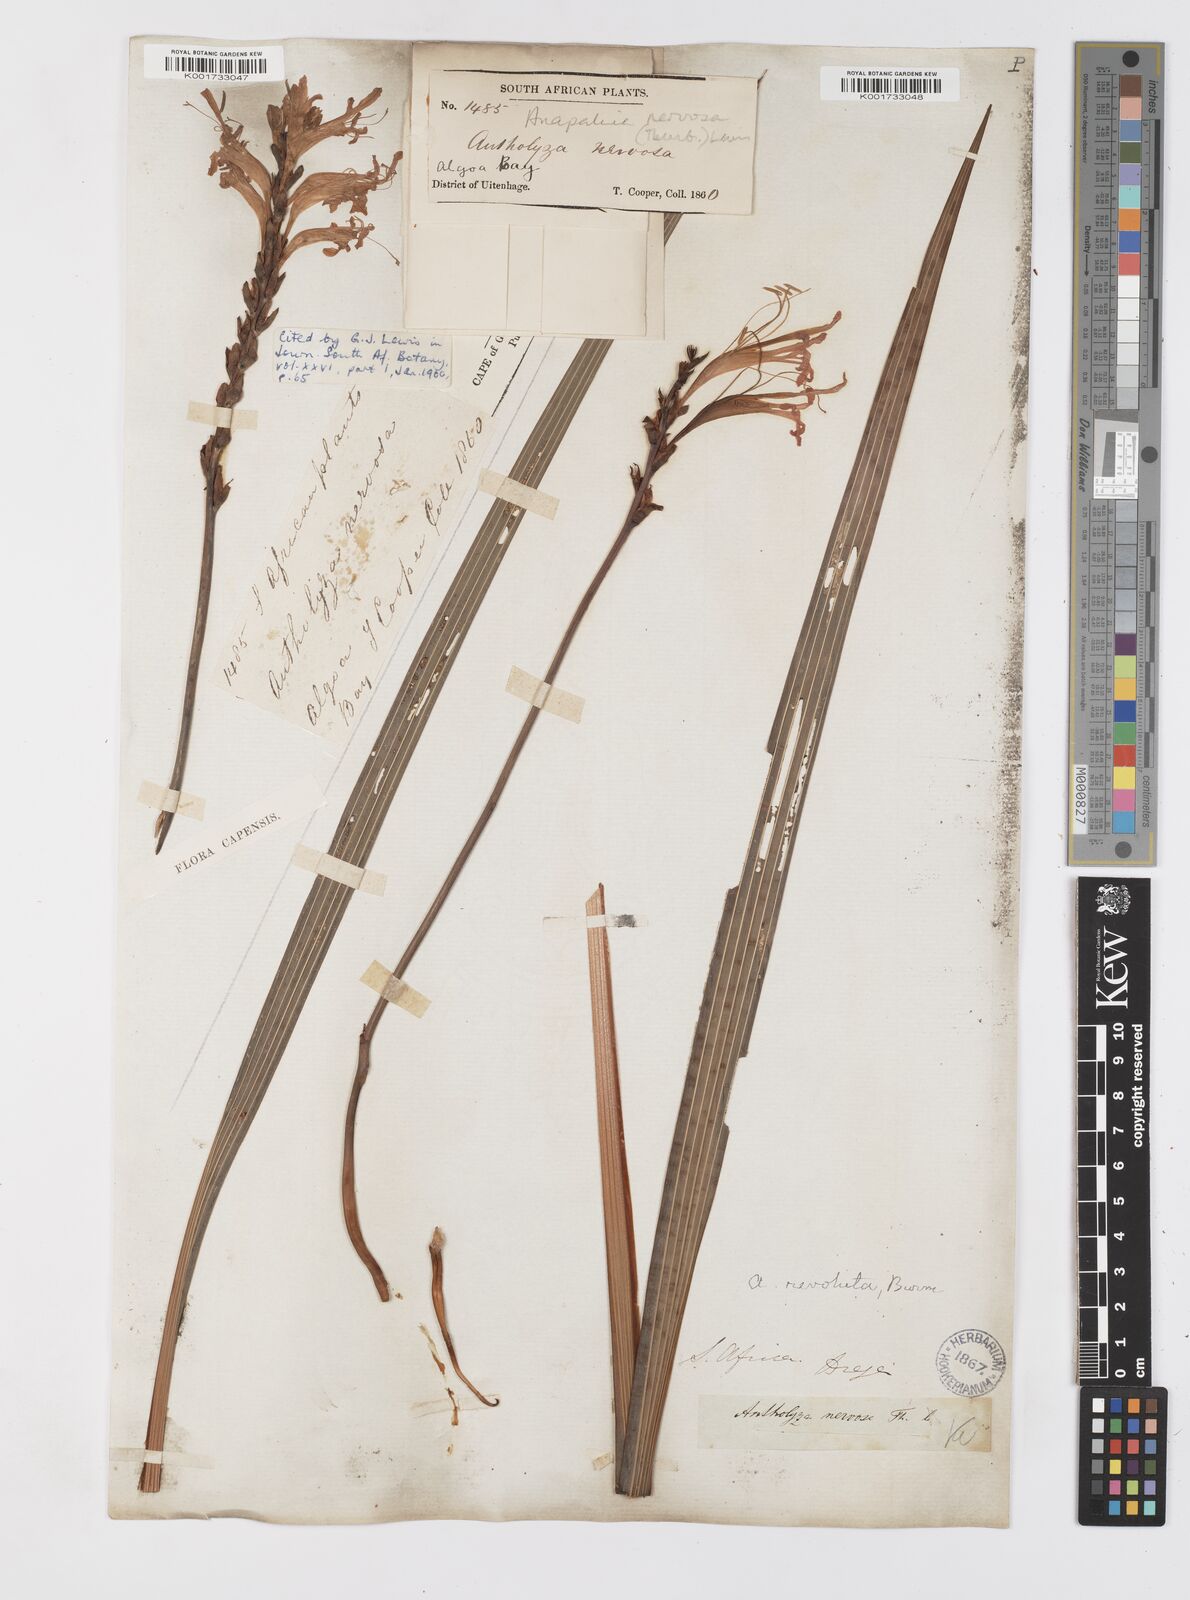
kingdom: Plantae
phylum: Tracheophyta
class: Liliopsida
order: Asparagales
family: Iridaceae
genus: Tritoniopsis
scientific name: Tritoniopsis nervosa
